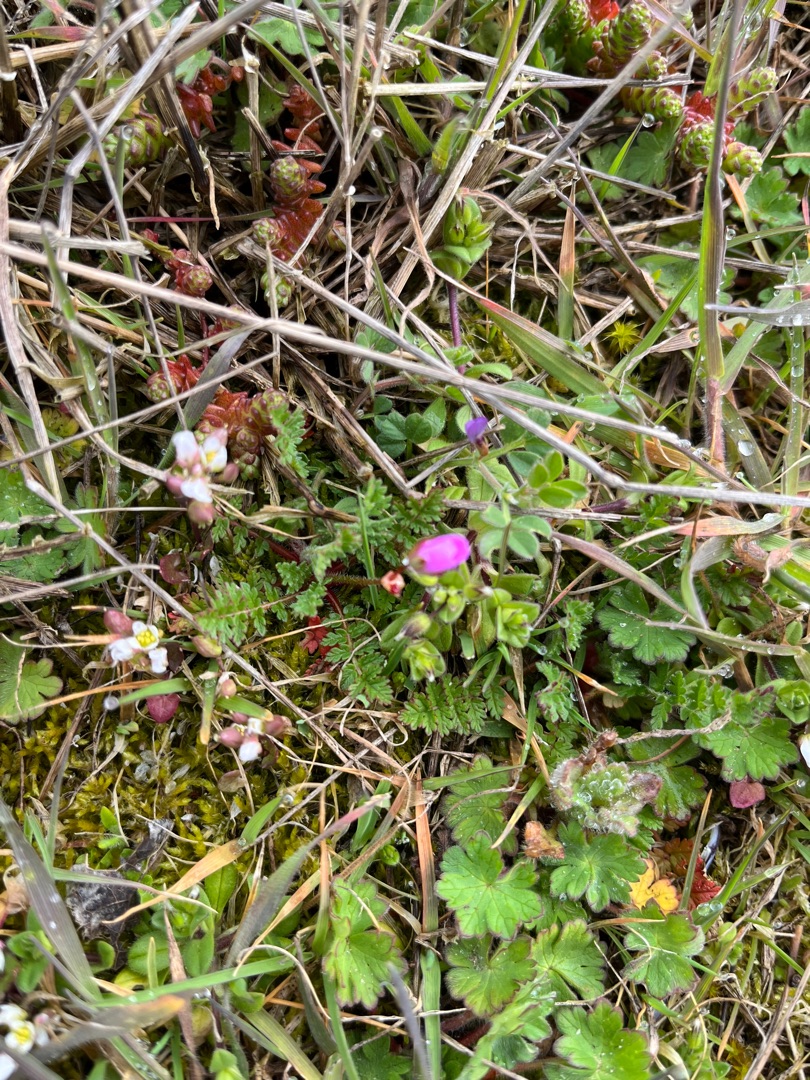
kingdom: Plantae
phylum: Tracheophyta
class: Magnoliopsida
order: Geraniales
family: Geraniaceae
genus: Erodium
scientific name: Erodium cicutarium
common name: Hejrenæb
